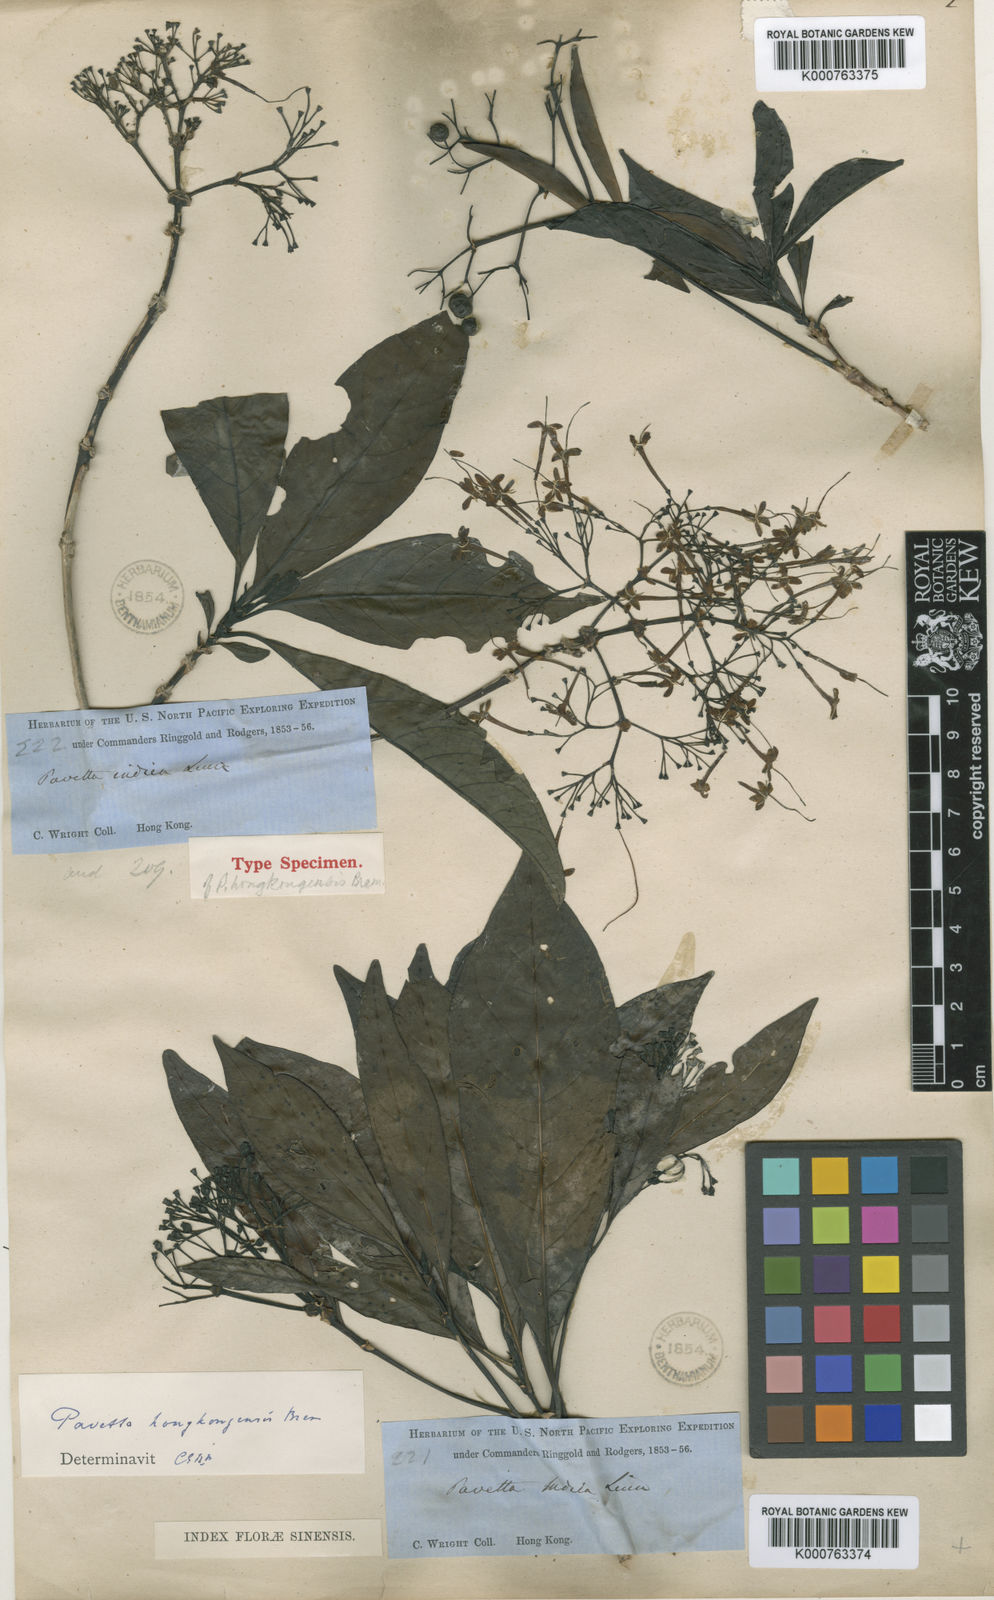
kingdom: Plantae
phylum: Tracheophyta
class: Magnoliopsida
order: Gentianales
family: Rubiaceae
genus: Pavetta
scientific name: Pavetta hongkongensis
